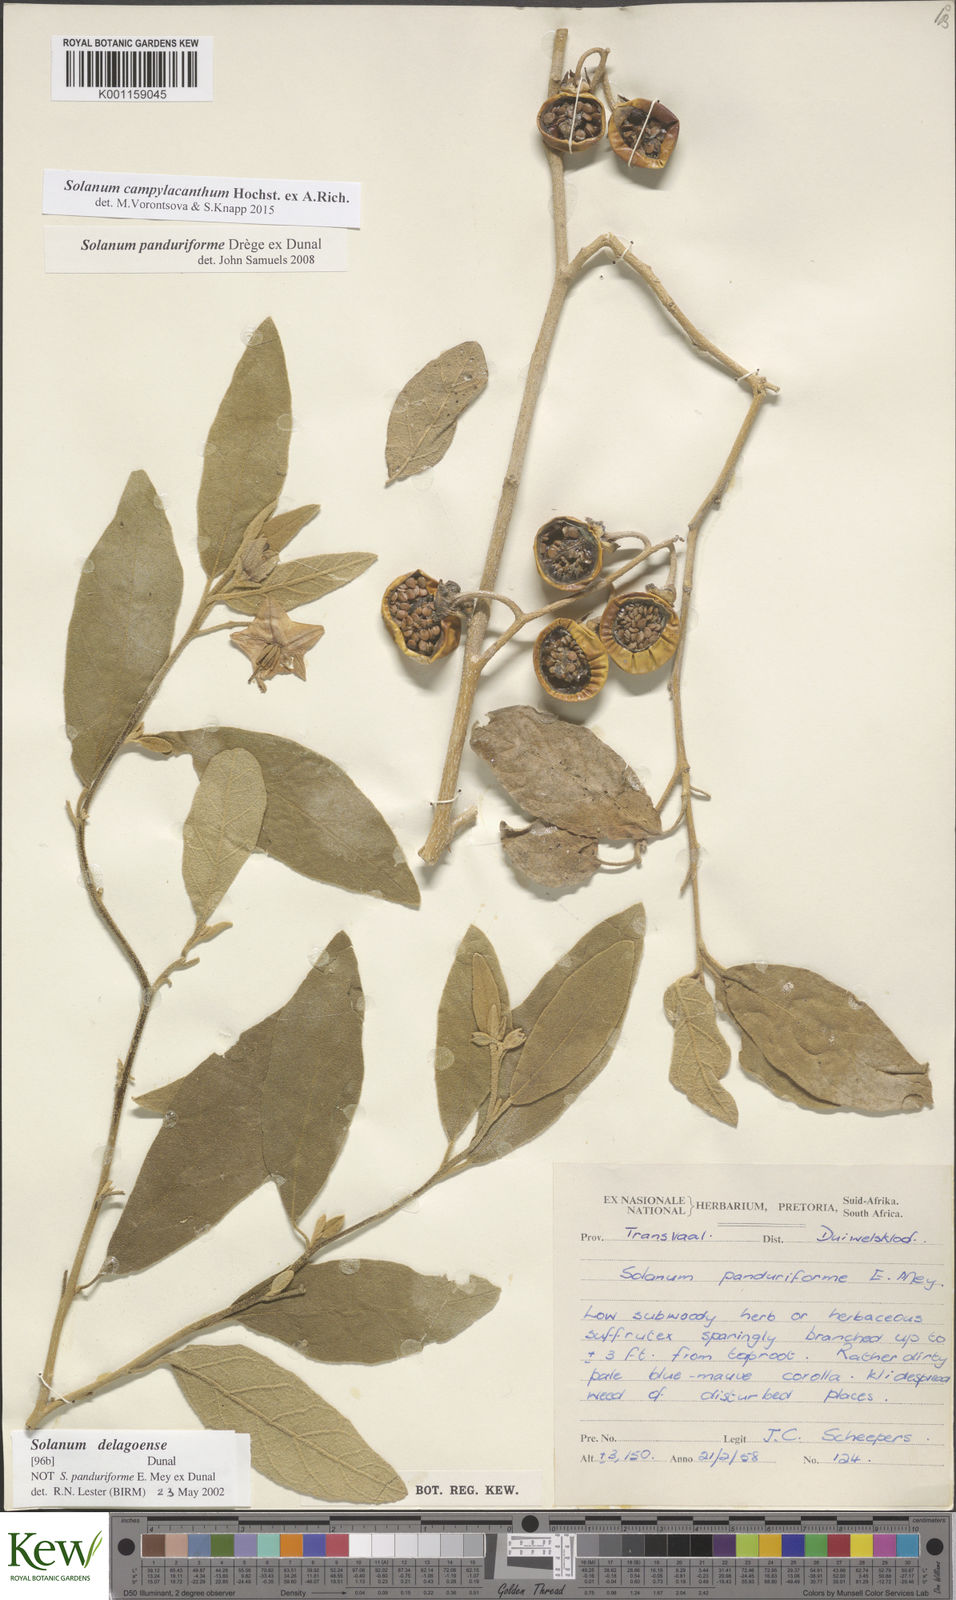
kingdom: Plantae
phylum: Tracheophyta
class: Magnoliopsida
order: Solanales
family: Solanaceae
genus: Solanum
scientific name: Solanum campylacanthum
